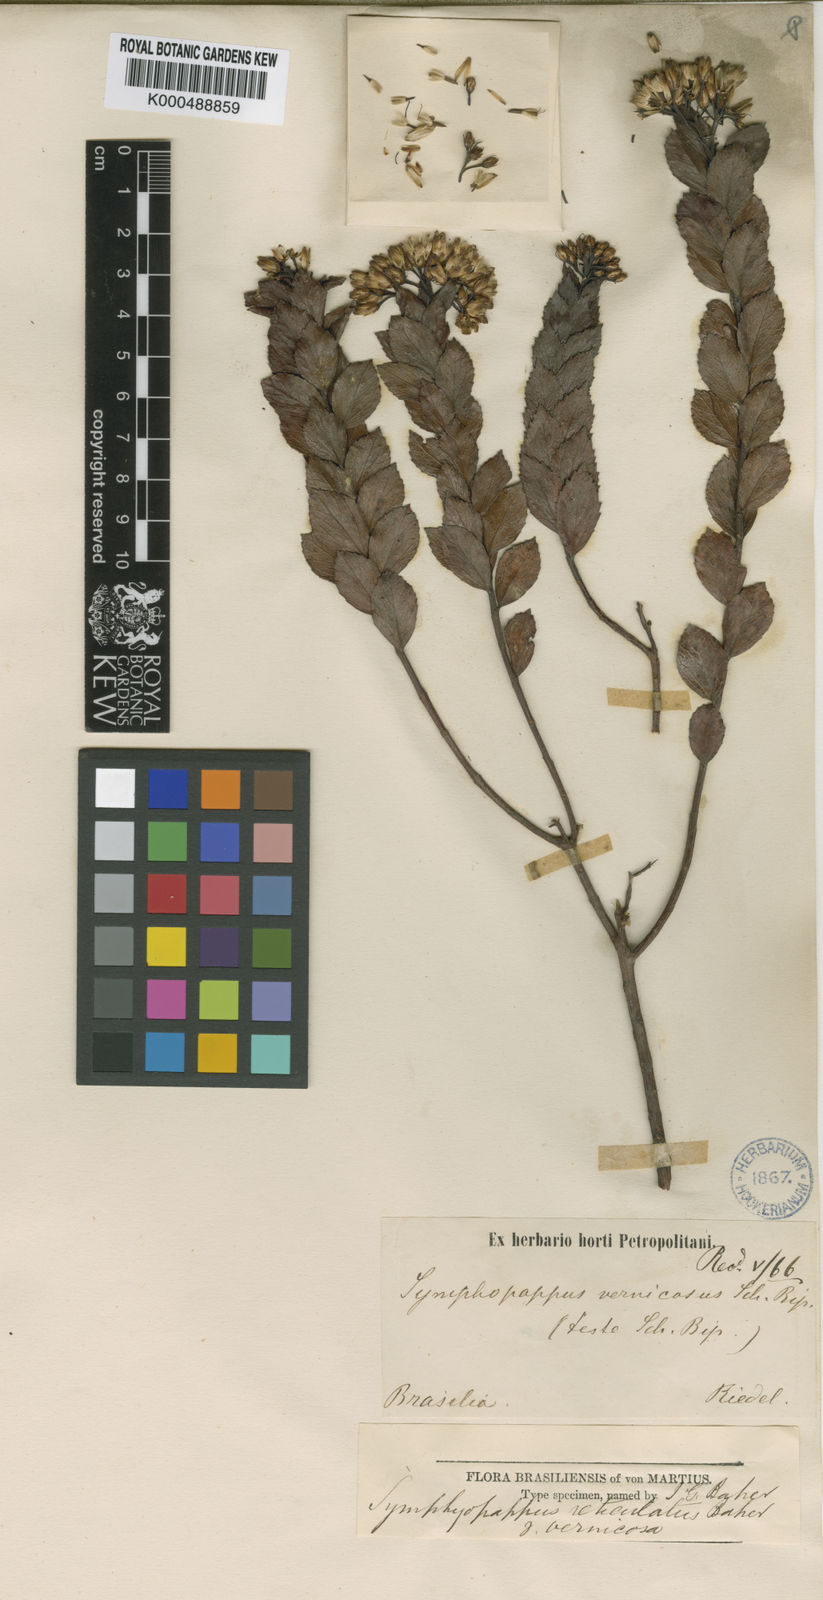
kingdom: Plantae
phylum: Tracheophyta
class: Magnoliopsida
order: Asterales
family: Asteraceae
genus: Symphyopappus
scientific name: Symphyopappus reitzii
